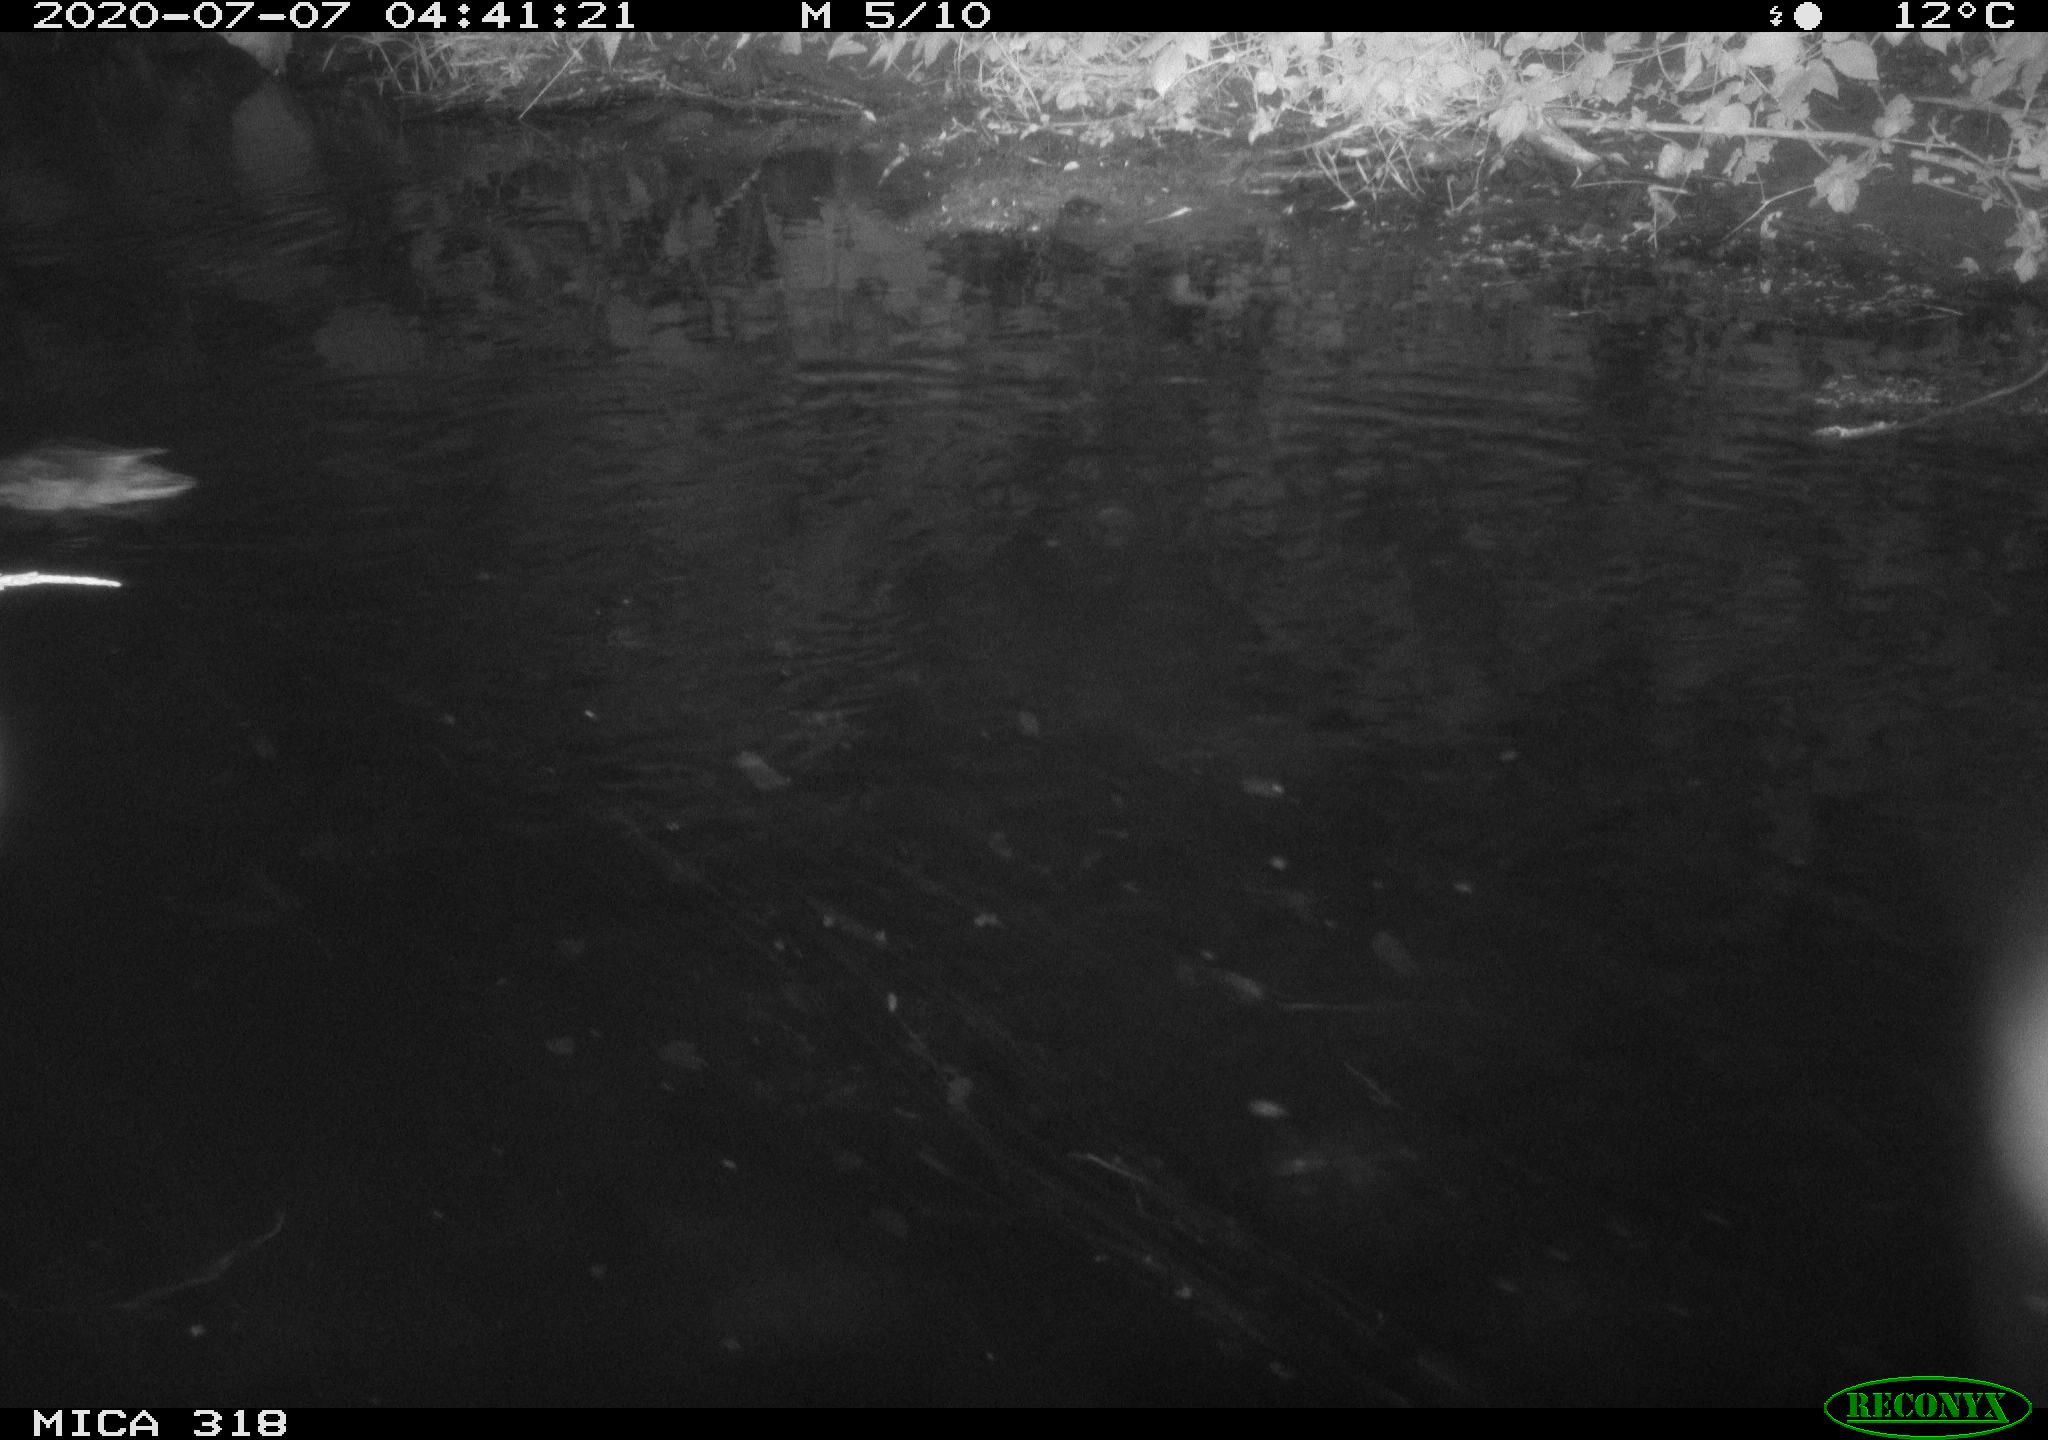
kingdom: Animalia
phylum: Chordata
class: Aves
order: Anseriformes
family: Anatidae
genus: Mareca
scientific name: Mareca strepera
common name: Gadwall
